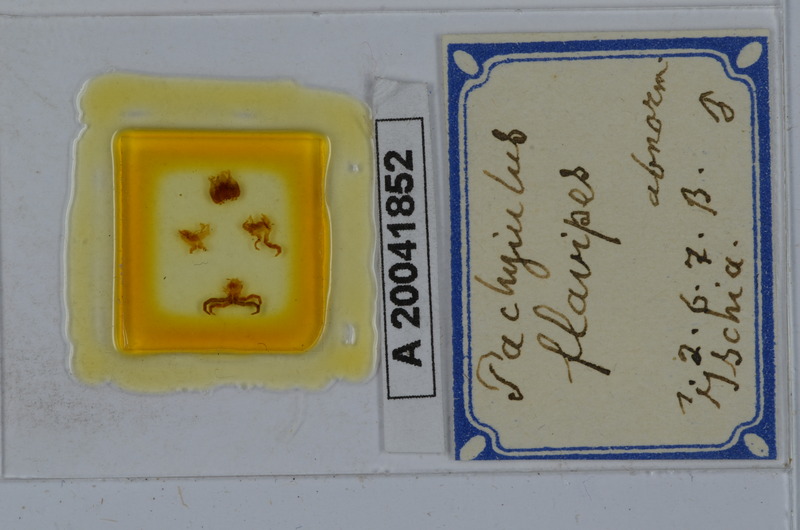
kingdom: Animalia
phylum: Arthropoda
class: Diplopoda
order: Julida
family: Julidae
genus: Pachyiulus
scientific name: Pachyiulus flavipes
